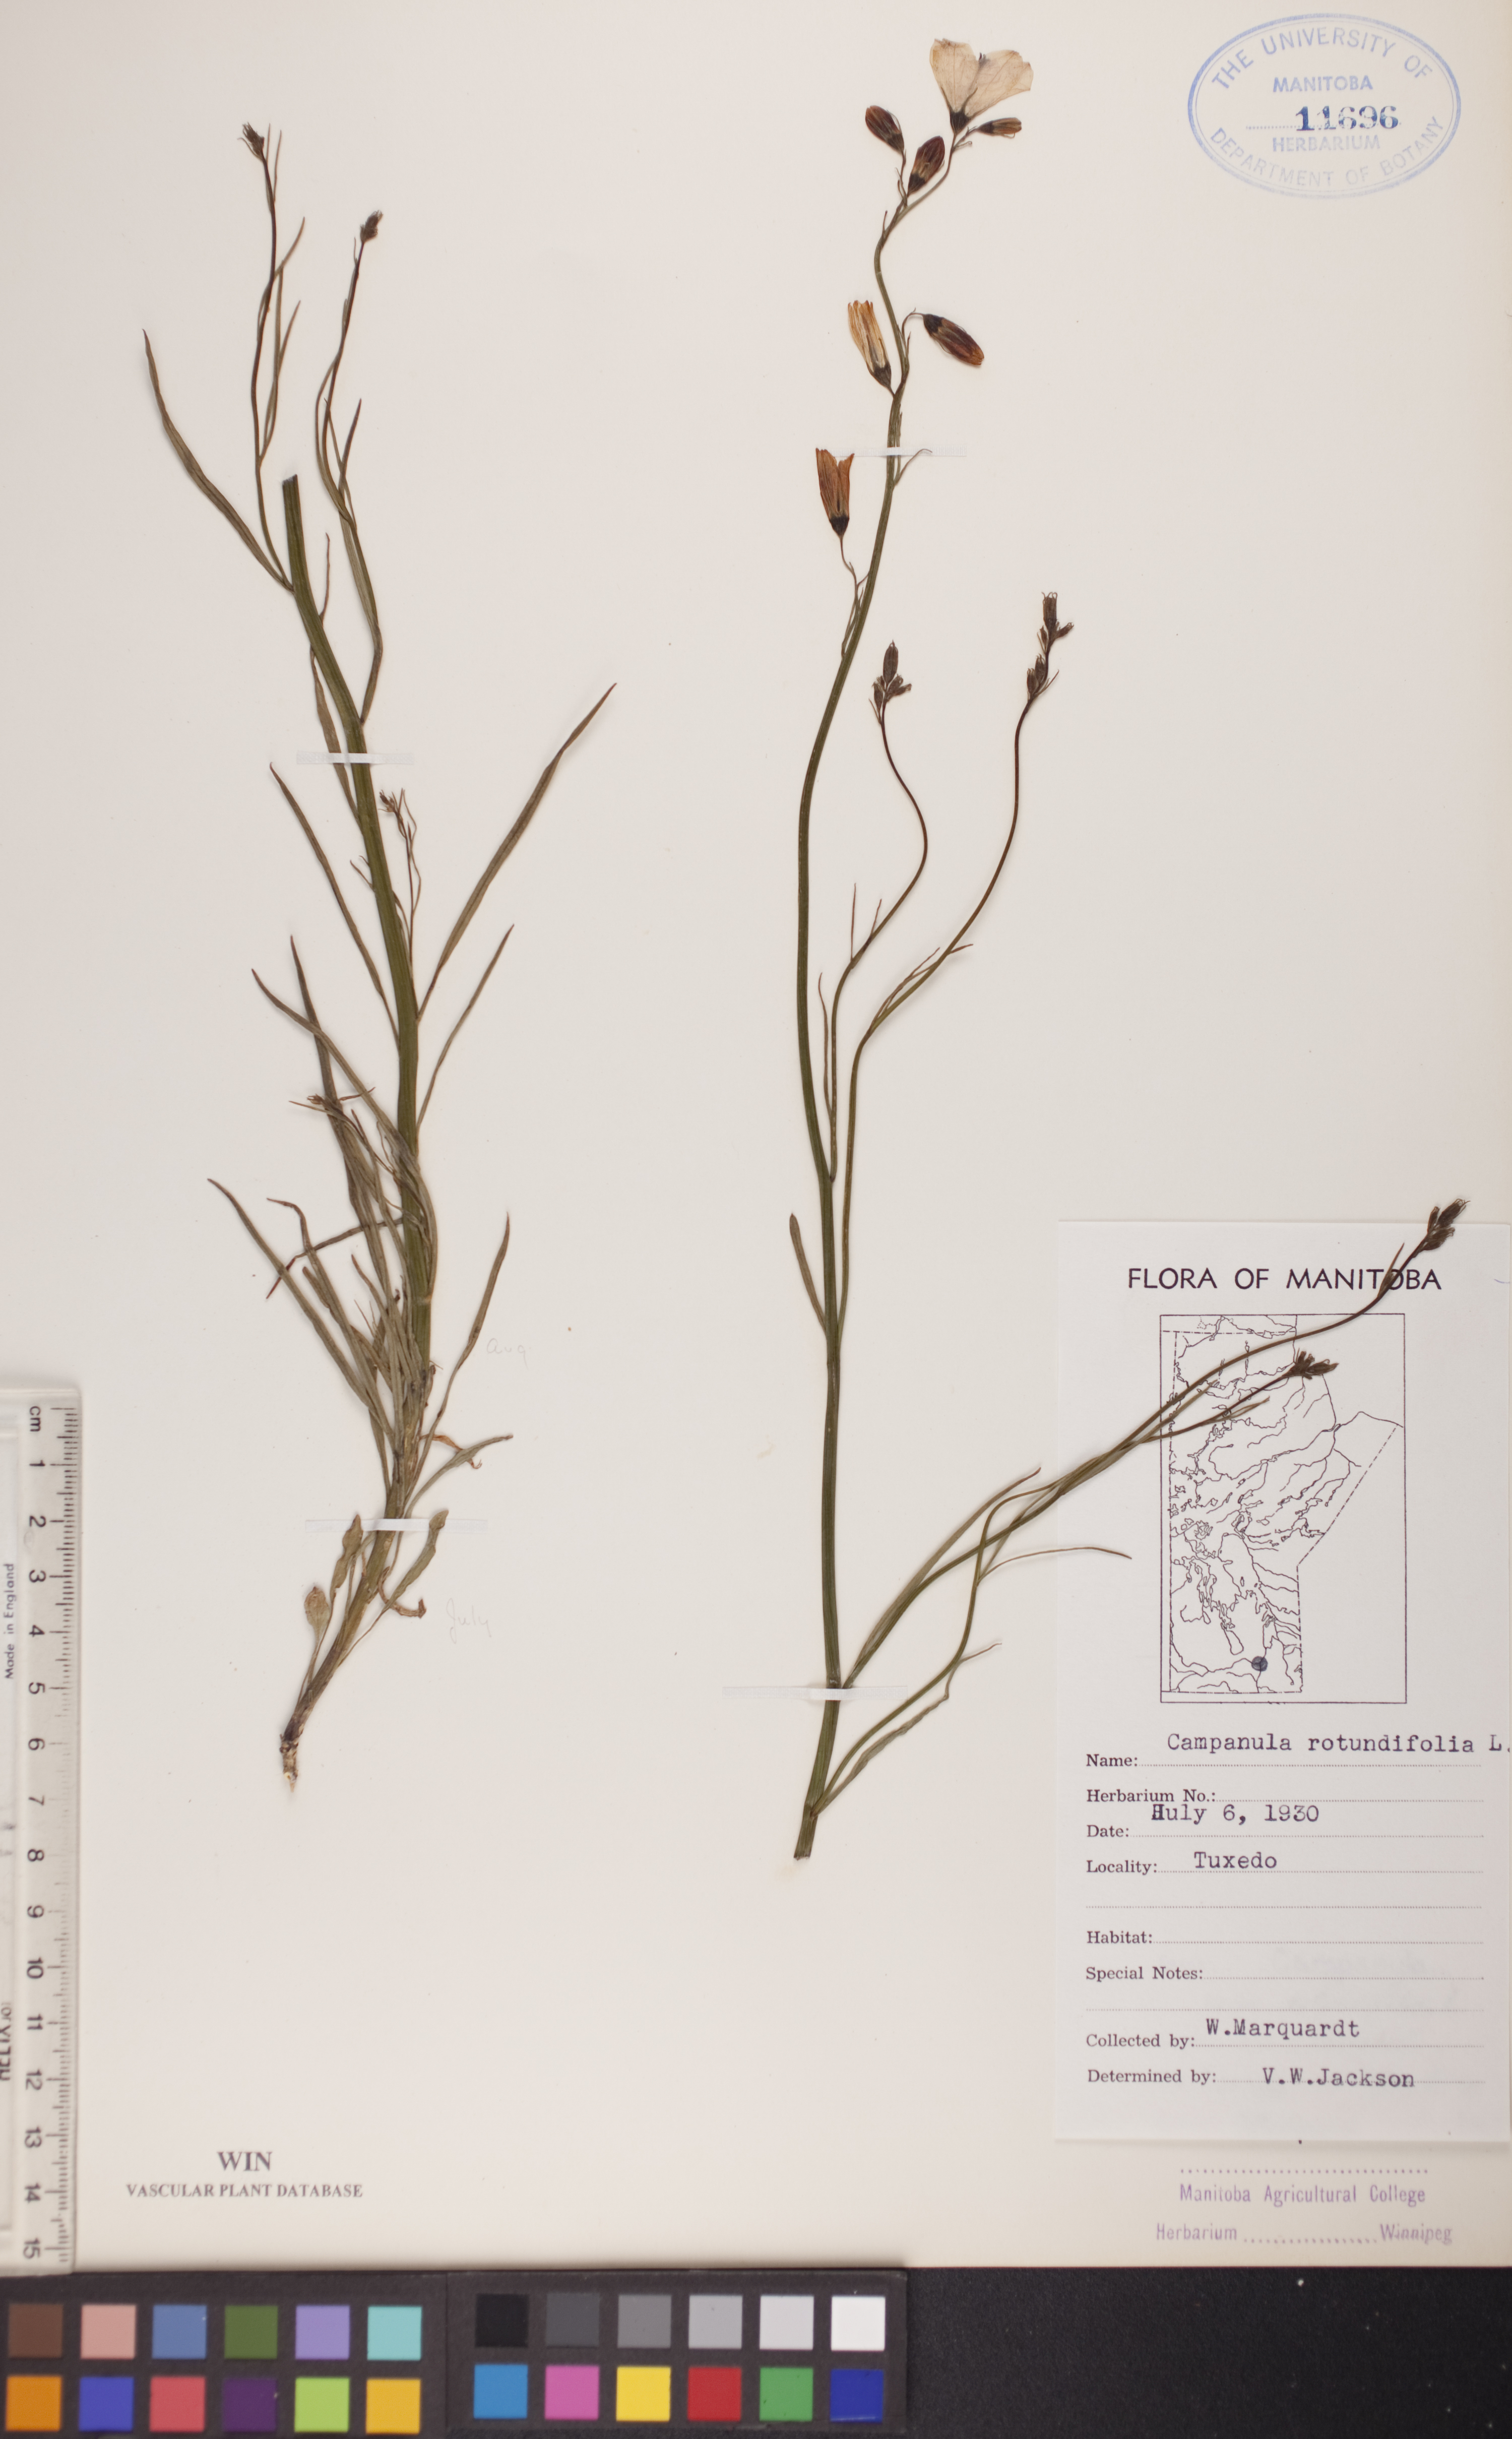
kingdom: Plantae
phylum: Tracheophyta
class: Magnoliopsida
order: Asterales
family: Campanulaceae
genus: Campanula
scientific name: Campanula rotundifolia
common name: Harebell
